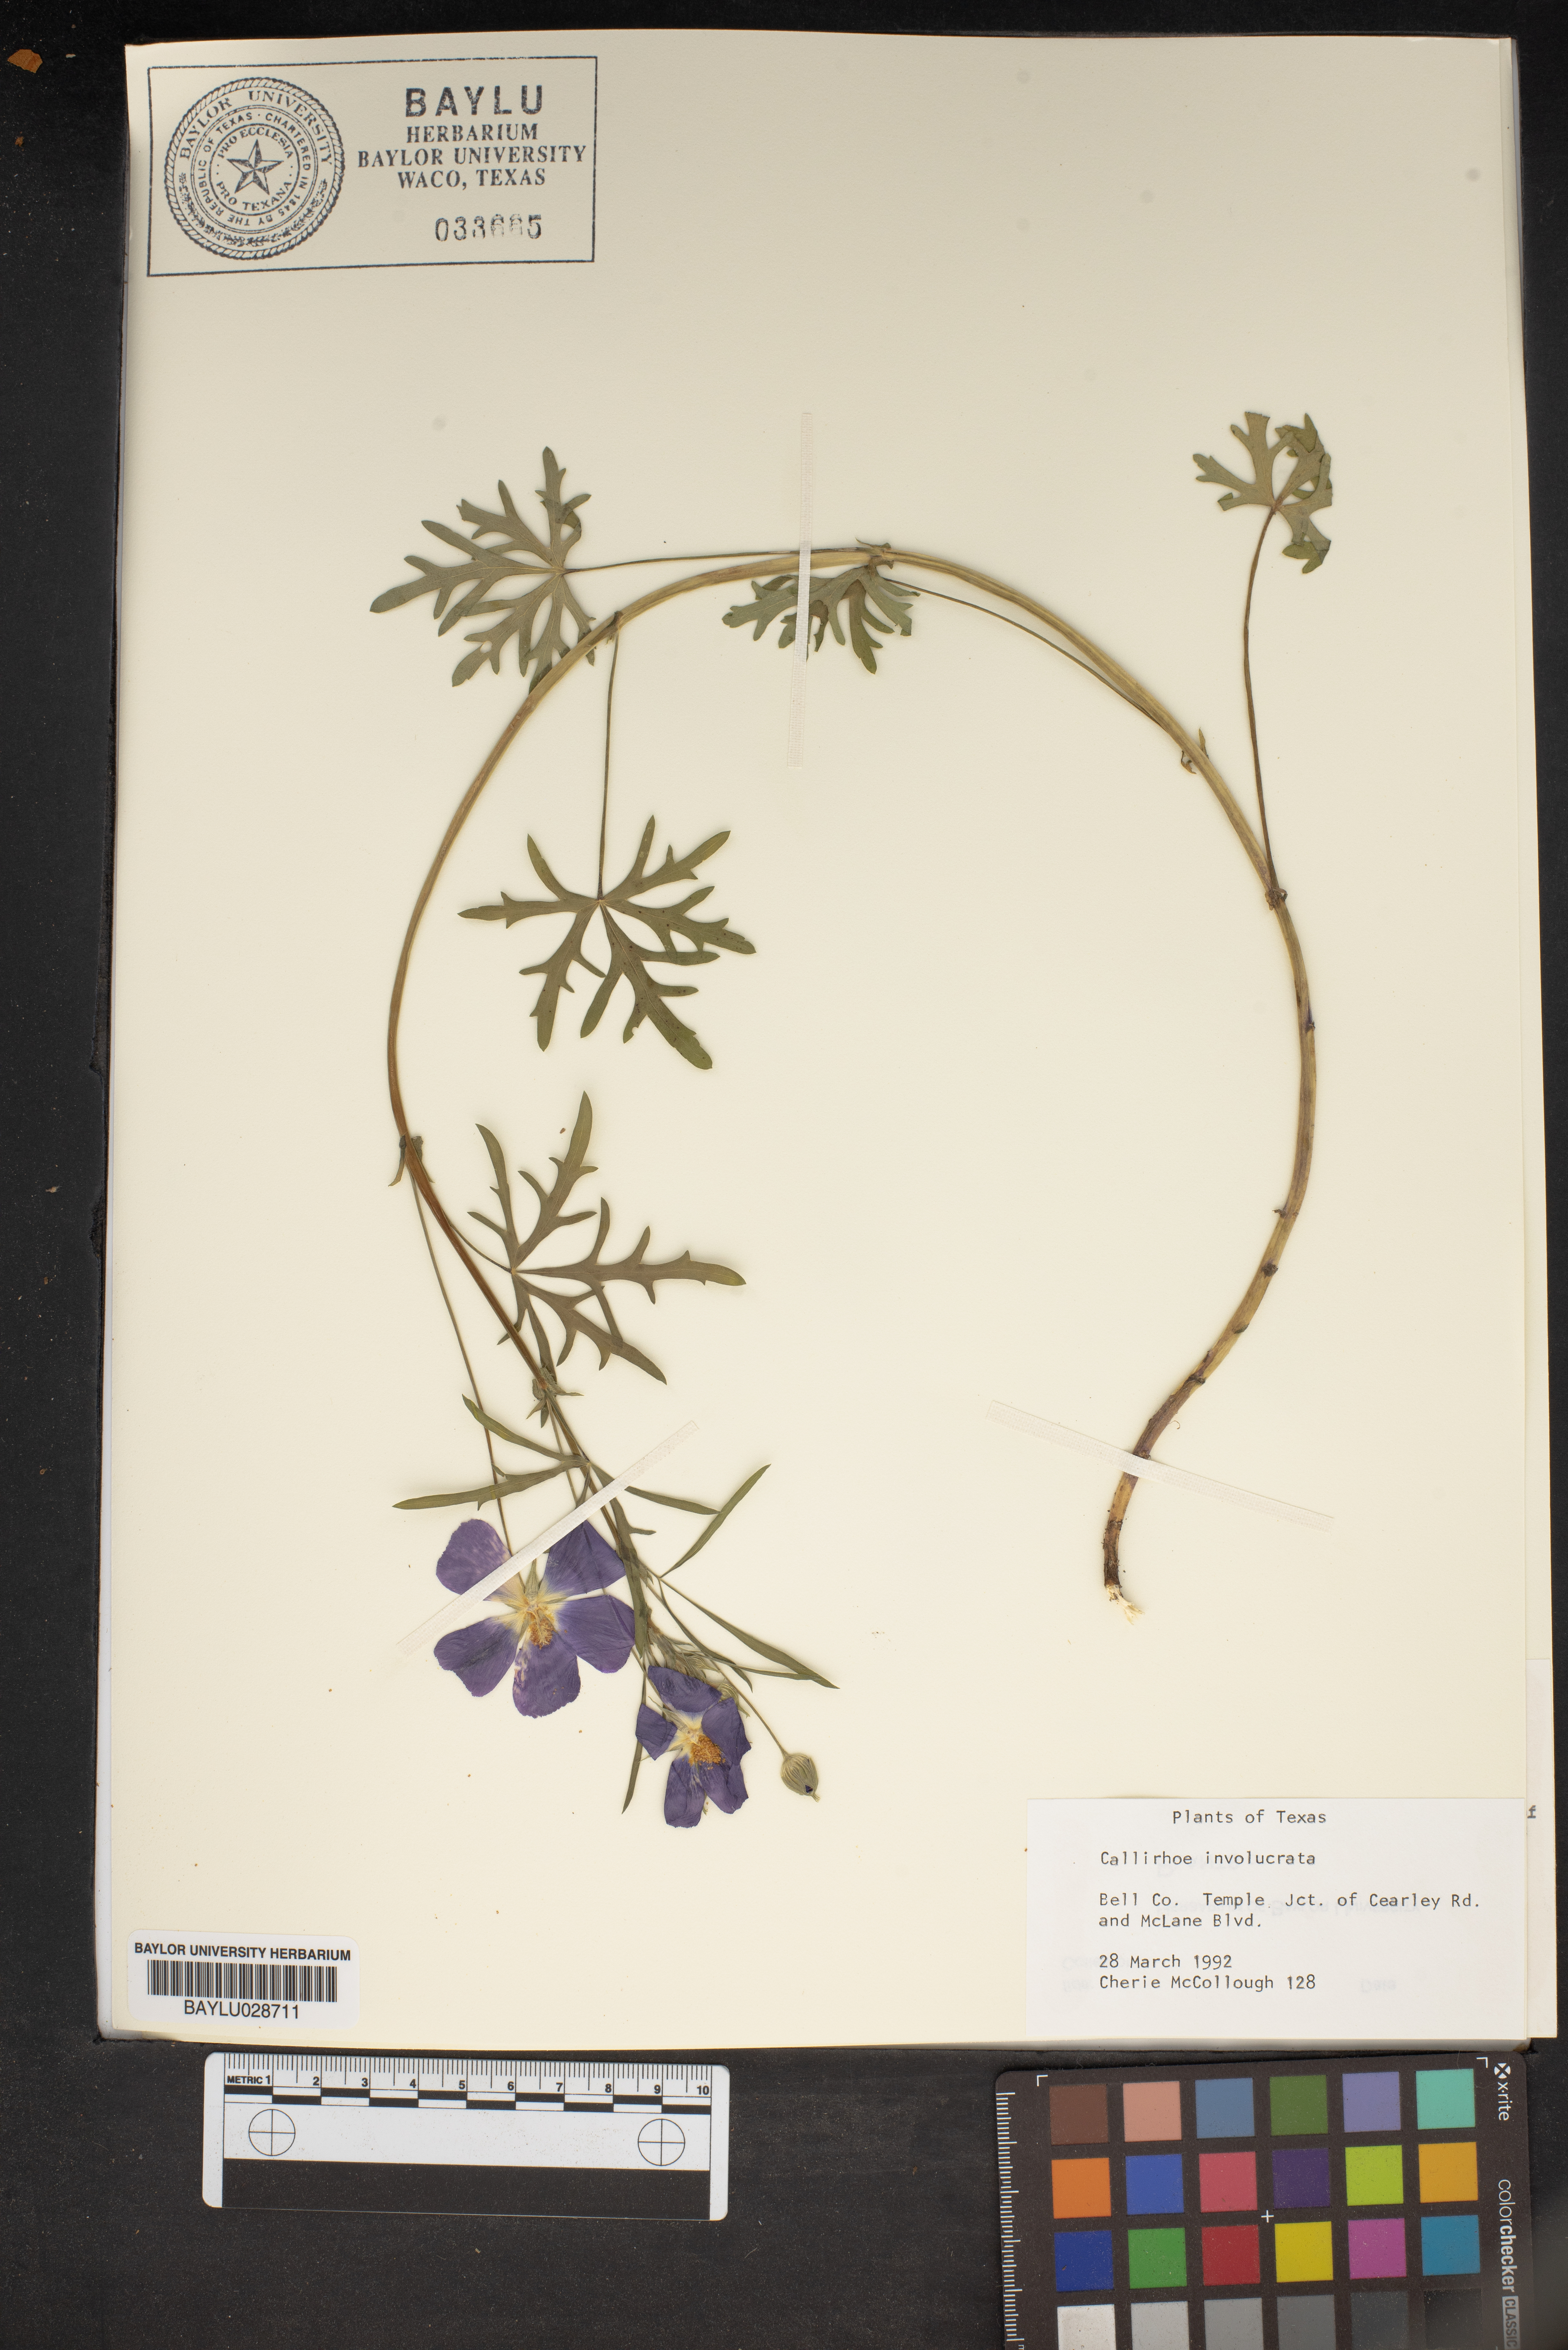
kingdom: Plantae
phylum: Tracheophyta
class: Magnoliopsida
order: Malvales
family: Malvaceae
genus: Callirhoe
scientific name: Callirhoe involucrata
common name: Purple poppy-mallow
